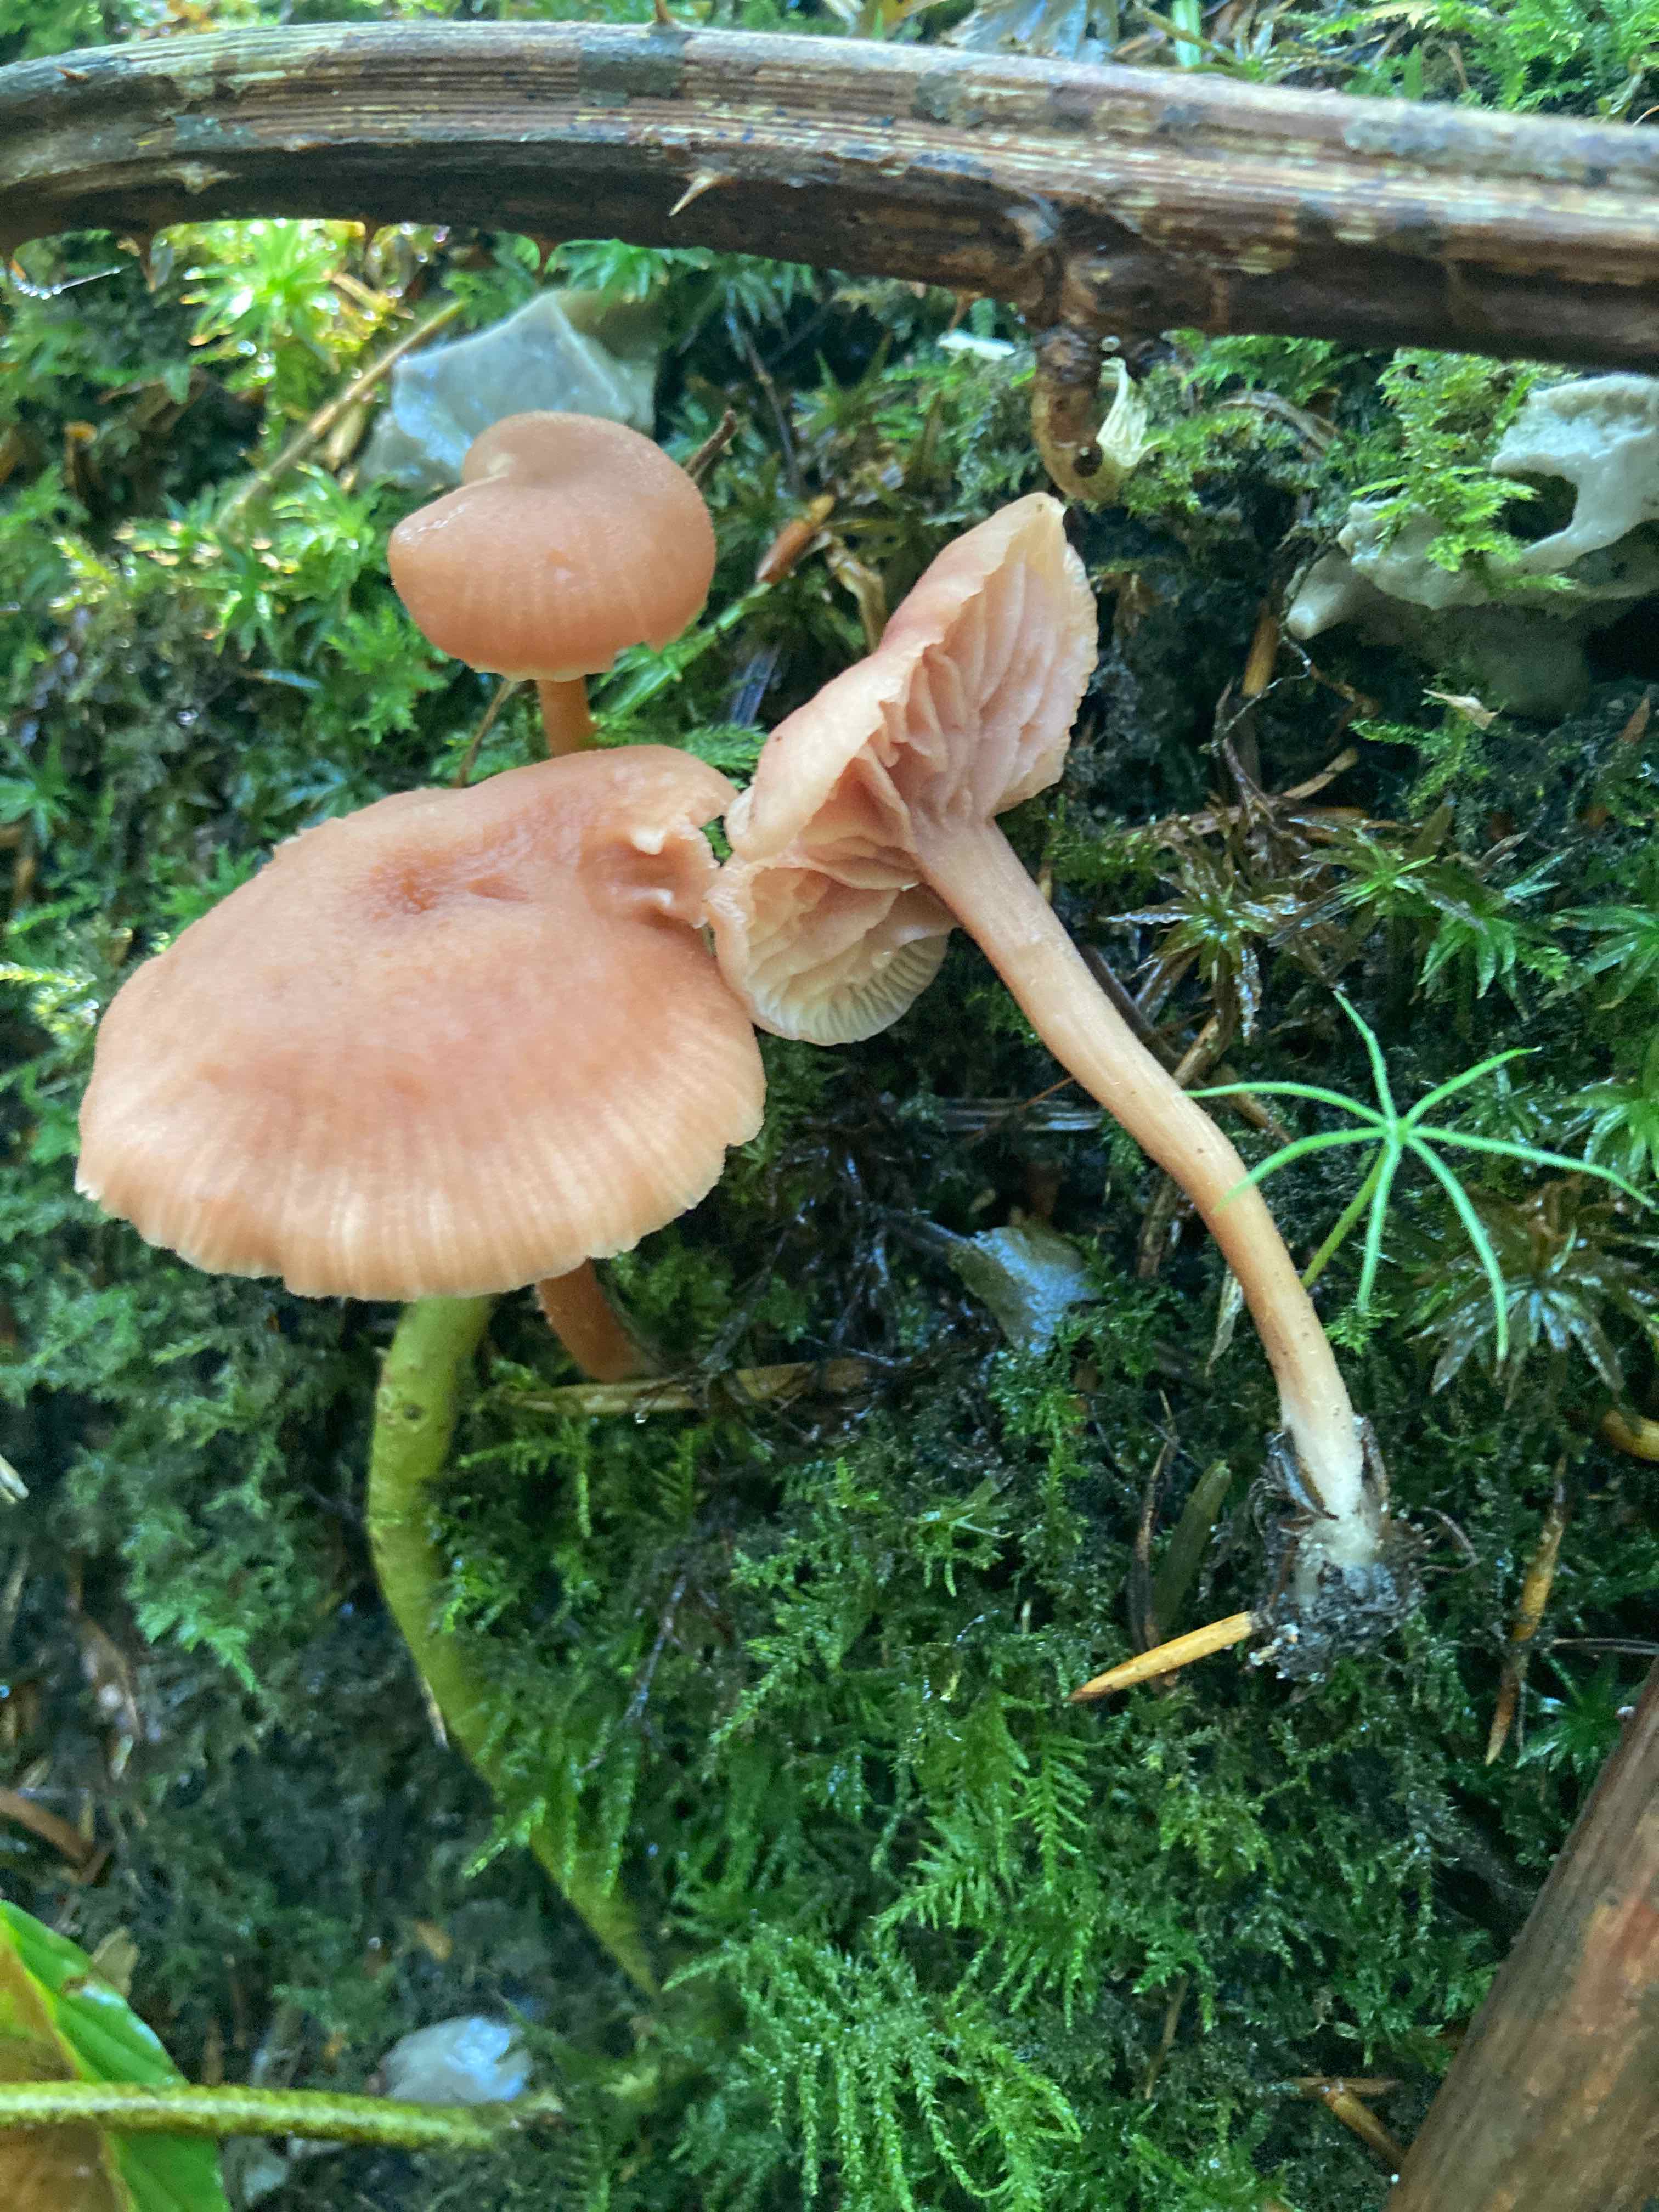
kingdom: Fungi
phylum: Basidiomycota
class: Agaricomycetes
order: Agaricales
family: Hydnangiaceae
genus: Laccaria
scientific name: Laccaria laccata
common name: rød ametysthat
